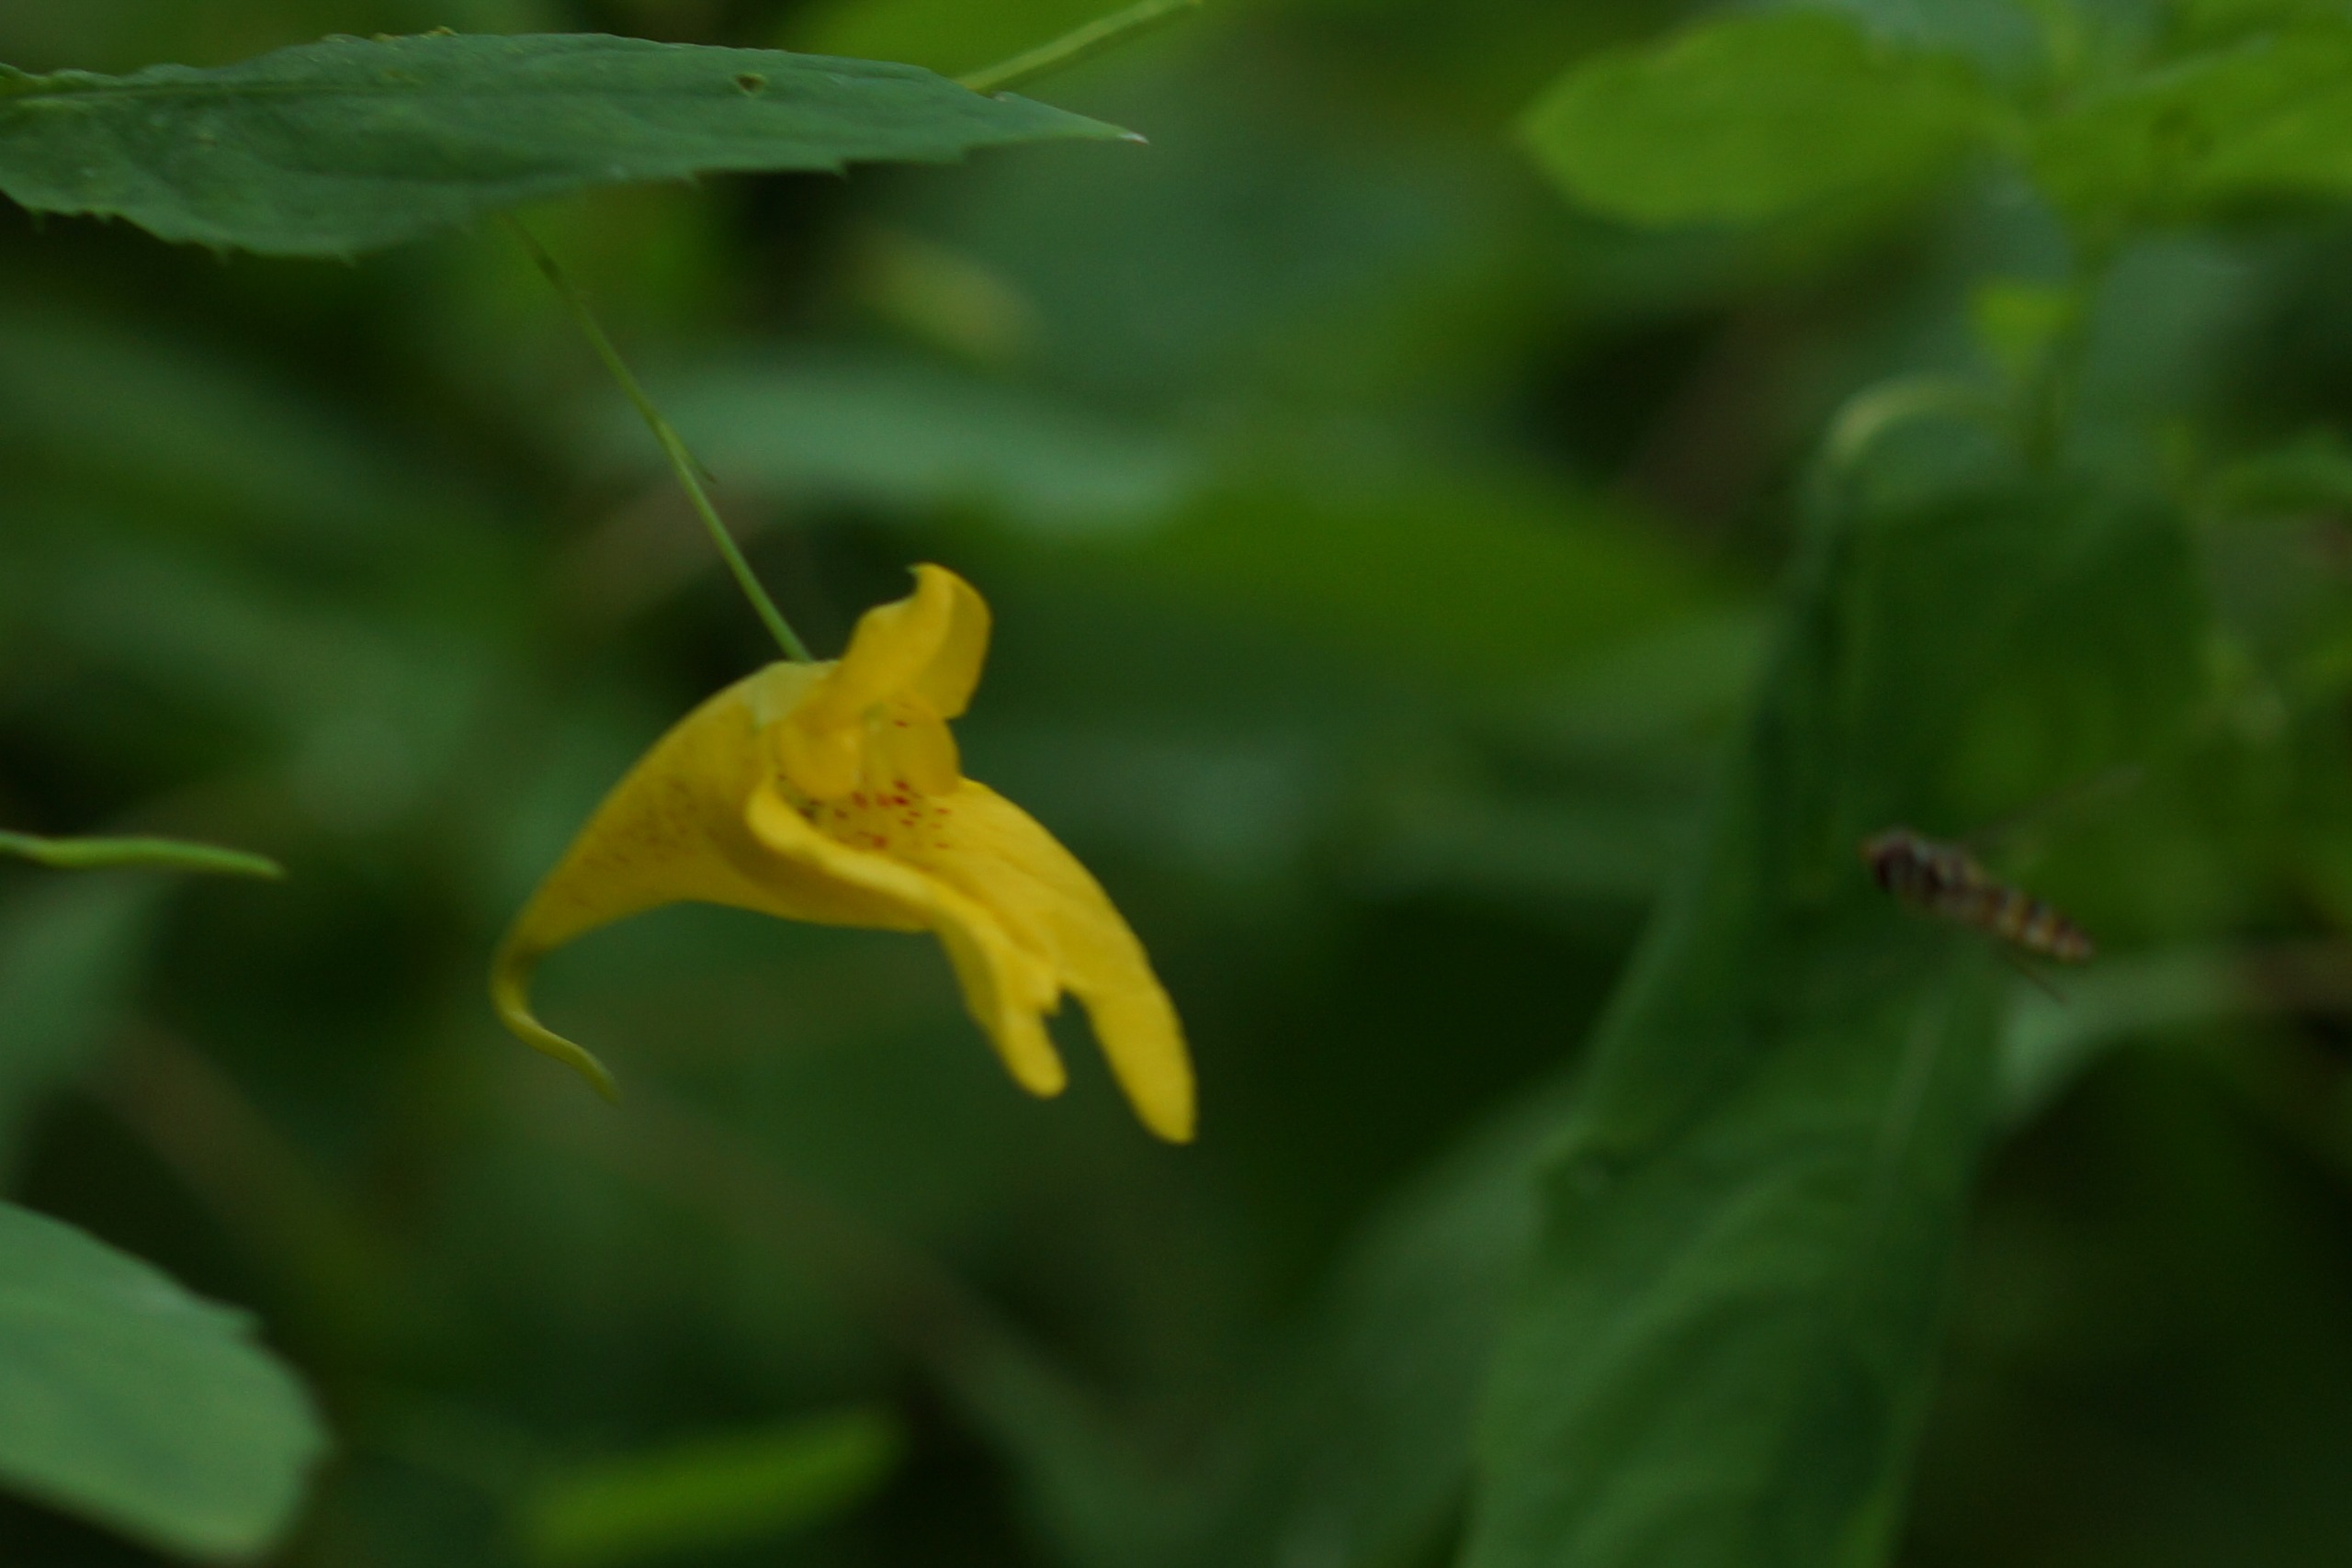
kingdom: Plantae
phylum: Tracheophyta
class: Magnoliopsida
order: Ericales
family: Balsaminaceae
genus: Impatiens
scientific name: Impatiens noli-tangere
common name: Spring-balsamin
